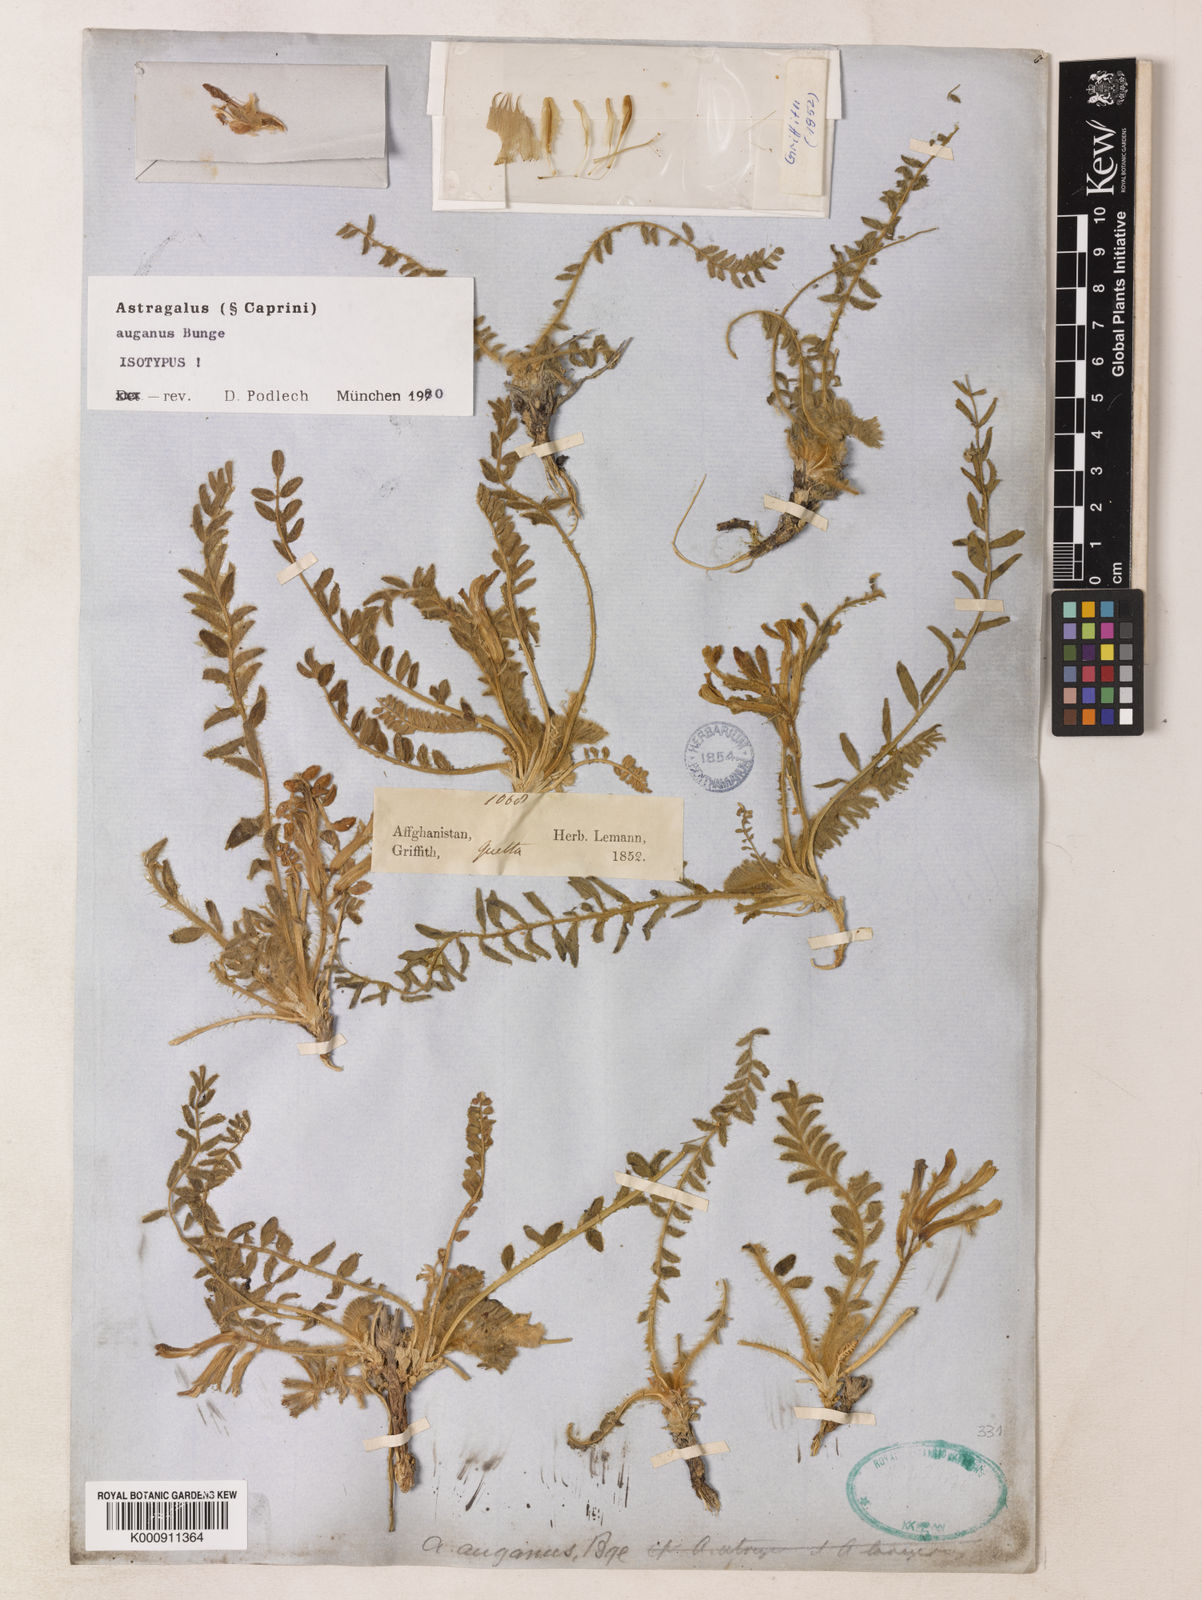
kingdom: Plantae
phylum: Tracheophyta
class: Magnoliopsida
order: Fabales
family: Fabaceae
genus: Astragalus
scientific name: Astragalus auganus
